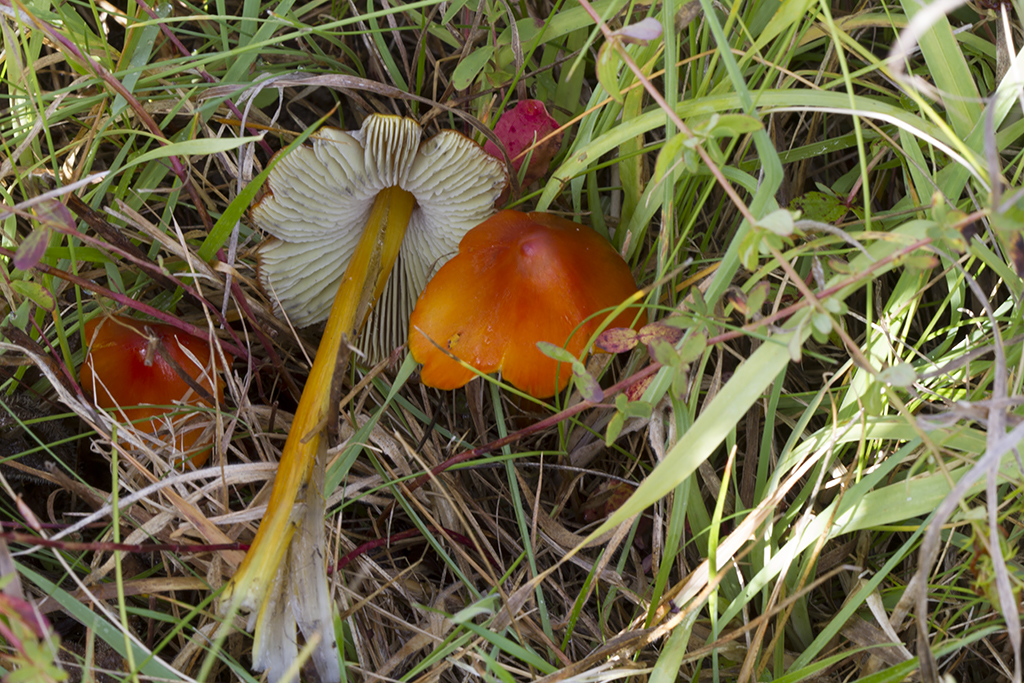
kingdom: Fungi
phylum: Basidiomycota
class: Agaricomycetes
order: Agaricales
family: Hygrophoraceae
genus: Hygrocybe
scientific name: Hygrocybe conica
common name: kegle-vokshat
